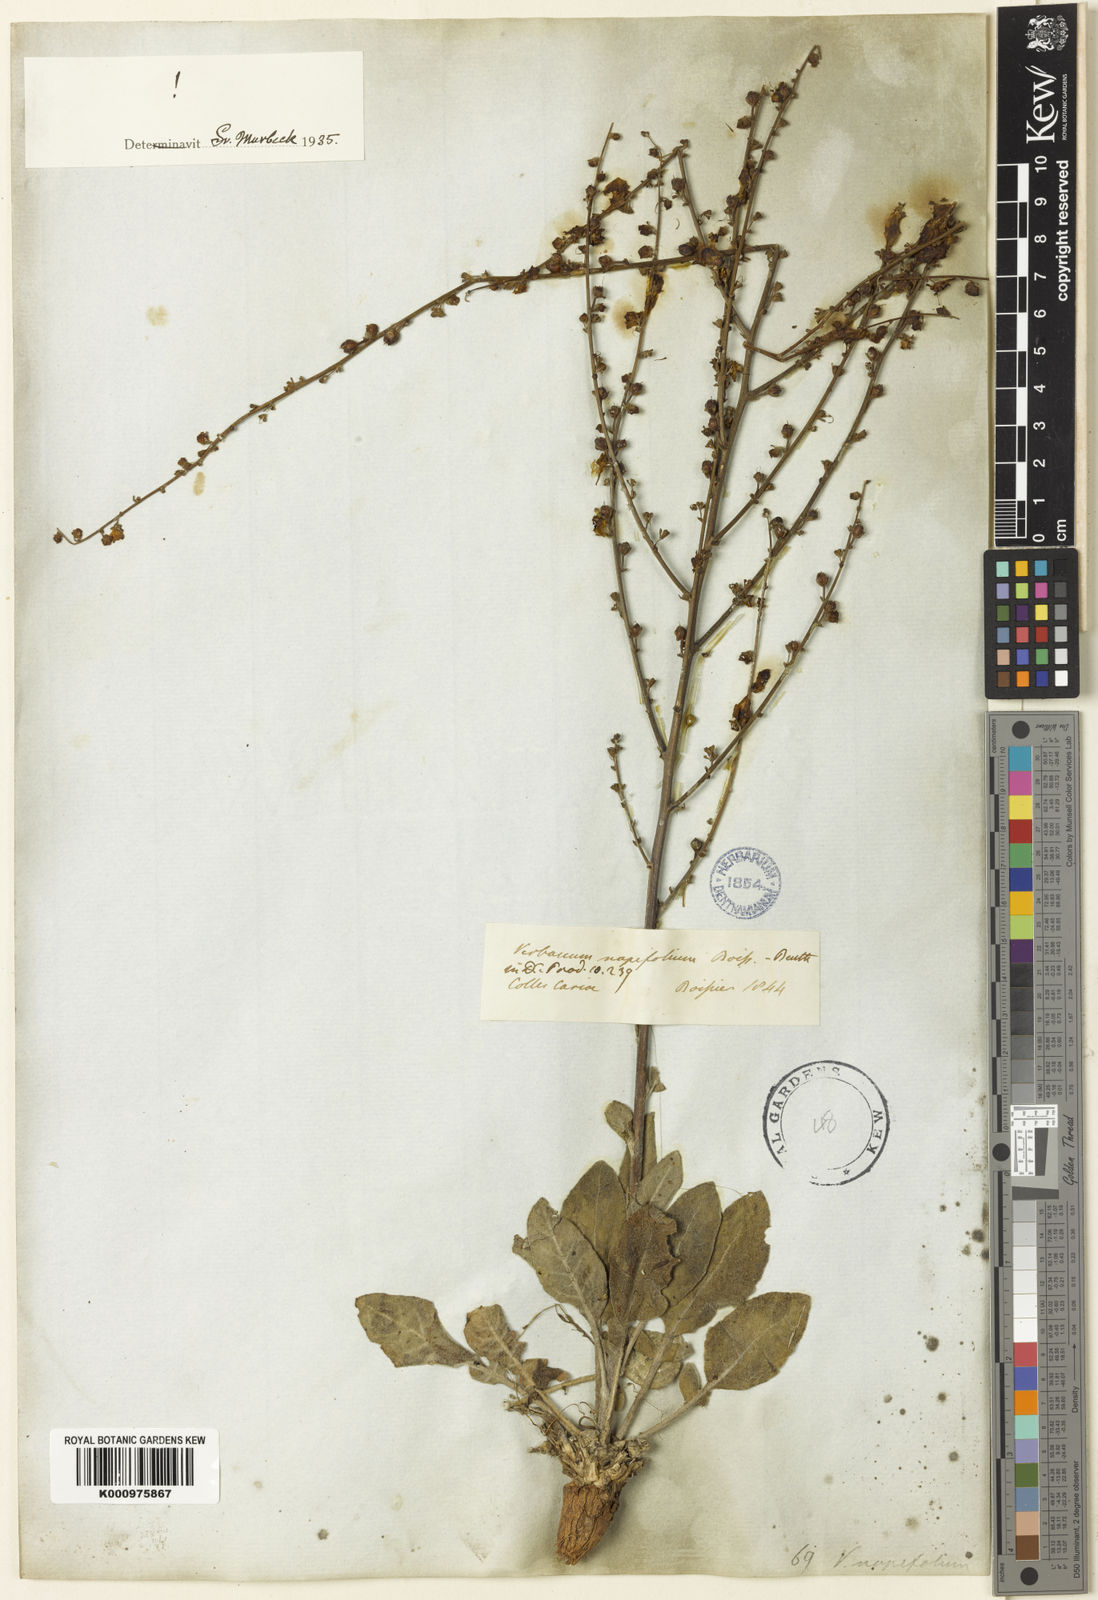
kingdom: Plantae
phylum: Tracheophyta
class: Magnoliopsida
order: Lamiales
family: Scrophulariaceae
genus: Verbascum
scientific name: Verbascum napifolium
